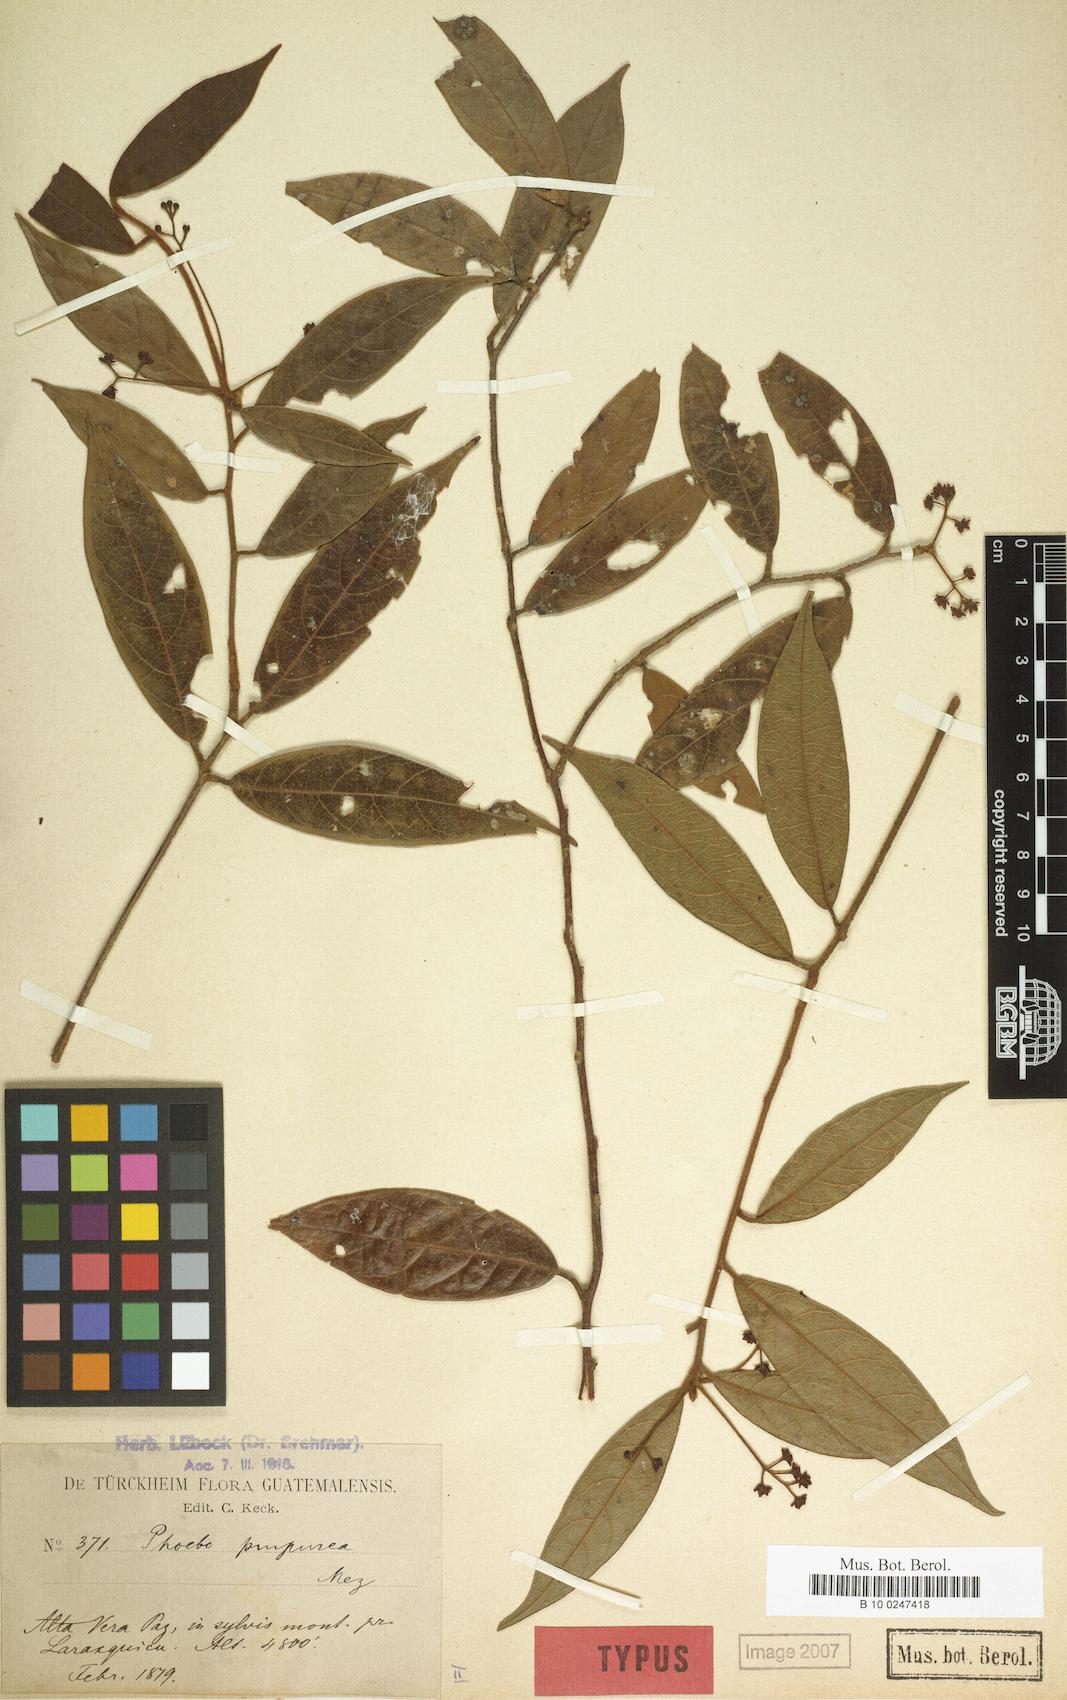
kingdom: Plantae
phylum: Tracheophyta
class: Magnoliopsida
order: Laurales
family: Lauraceae
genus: Ocotea
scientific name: Ocotea purpurea
